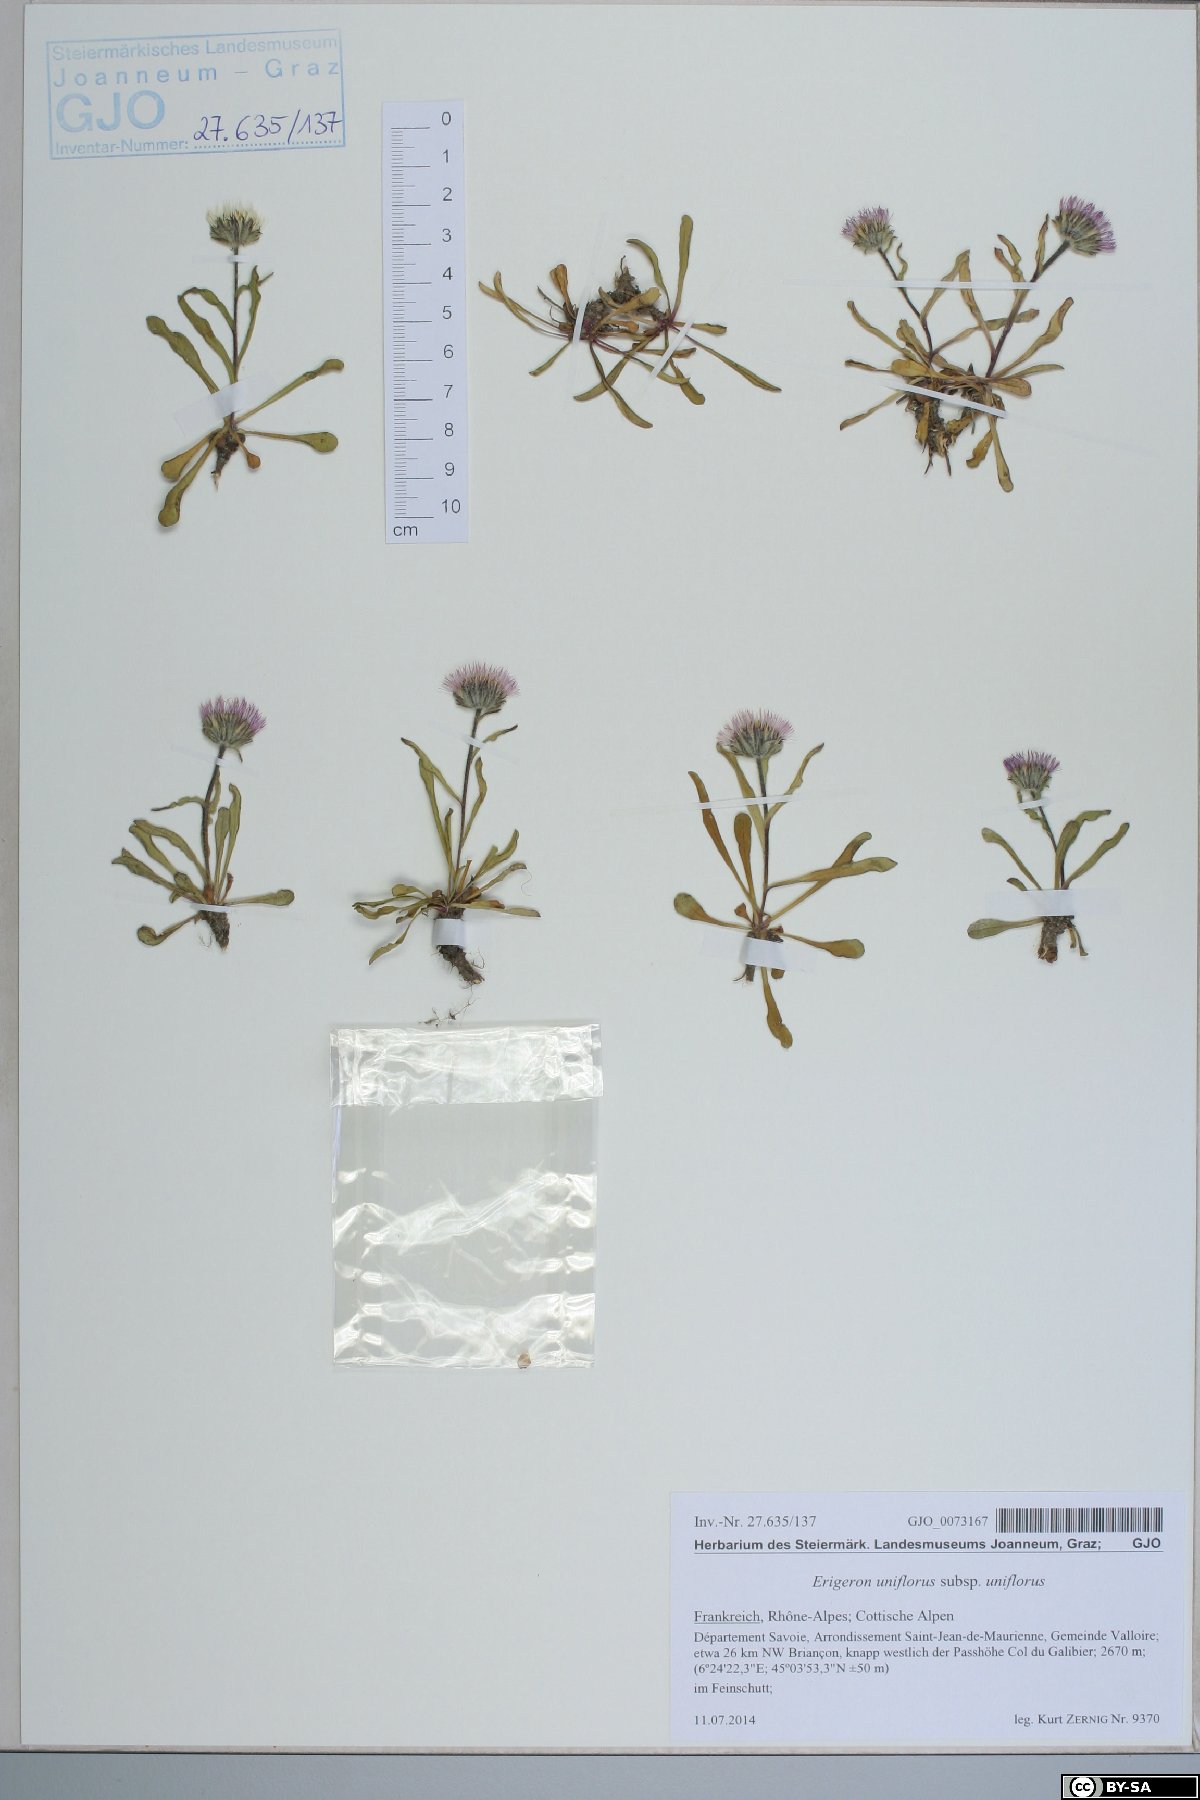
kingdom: Plantae
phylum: Tracheophyta
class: Magnoliopsida
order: Asterales
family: Asteraceae
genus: Erigeron
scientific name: Erigeron uniflorus
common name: Northern daisy
